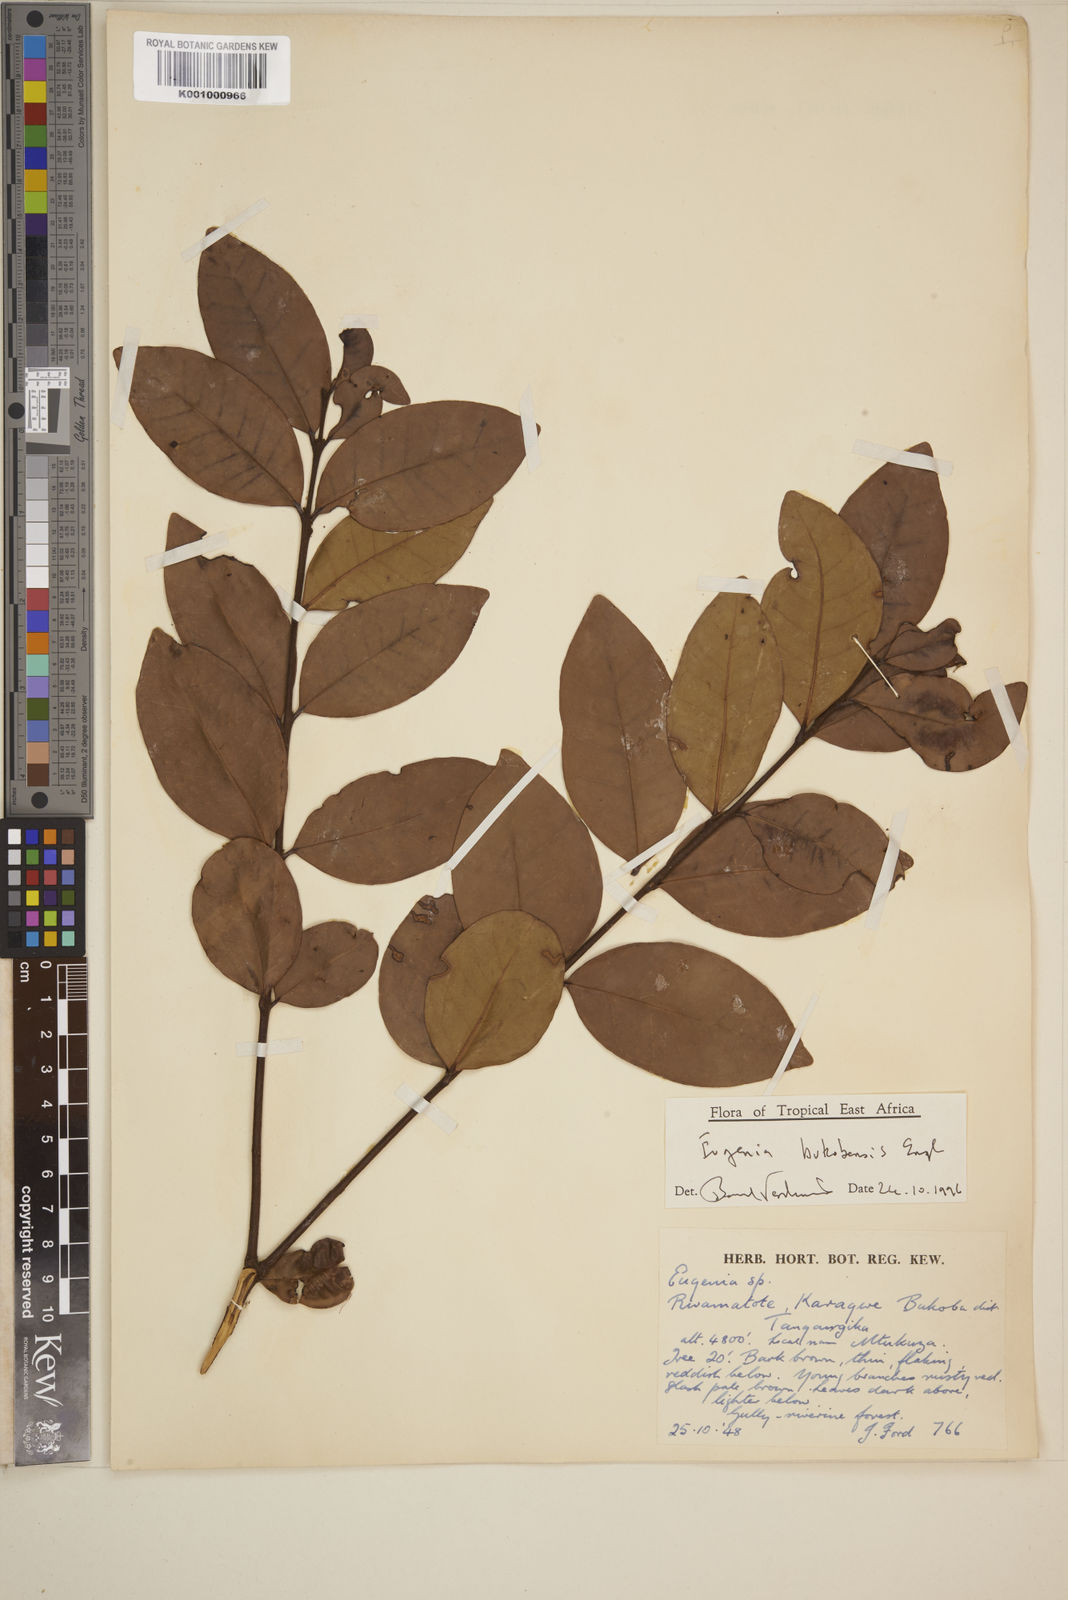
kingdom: Plantae
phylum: Tracheophyta
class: Magnoliopsida
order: Myrtales
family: Myrtaceae
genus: Eugenia
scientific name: Eugenia bukobensis
